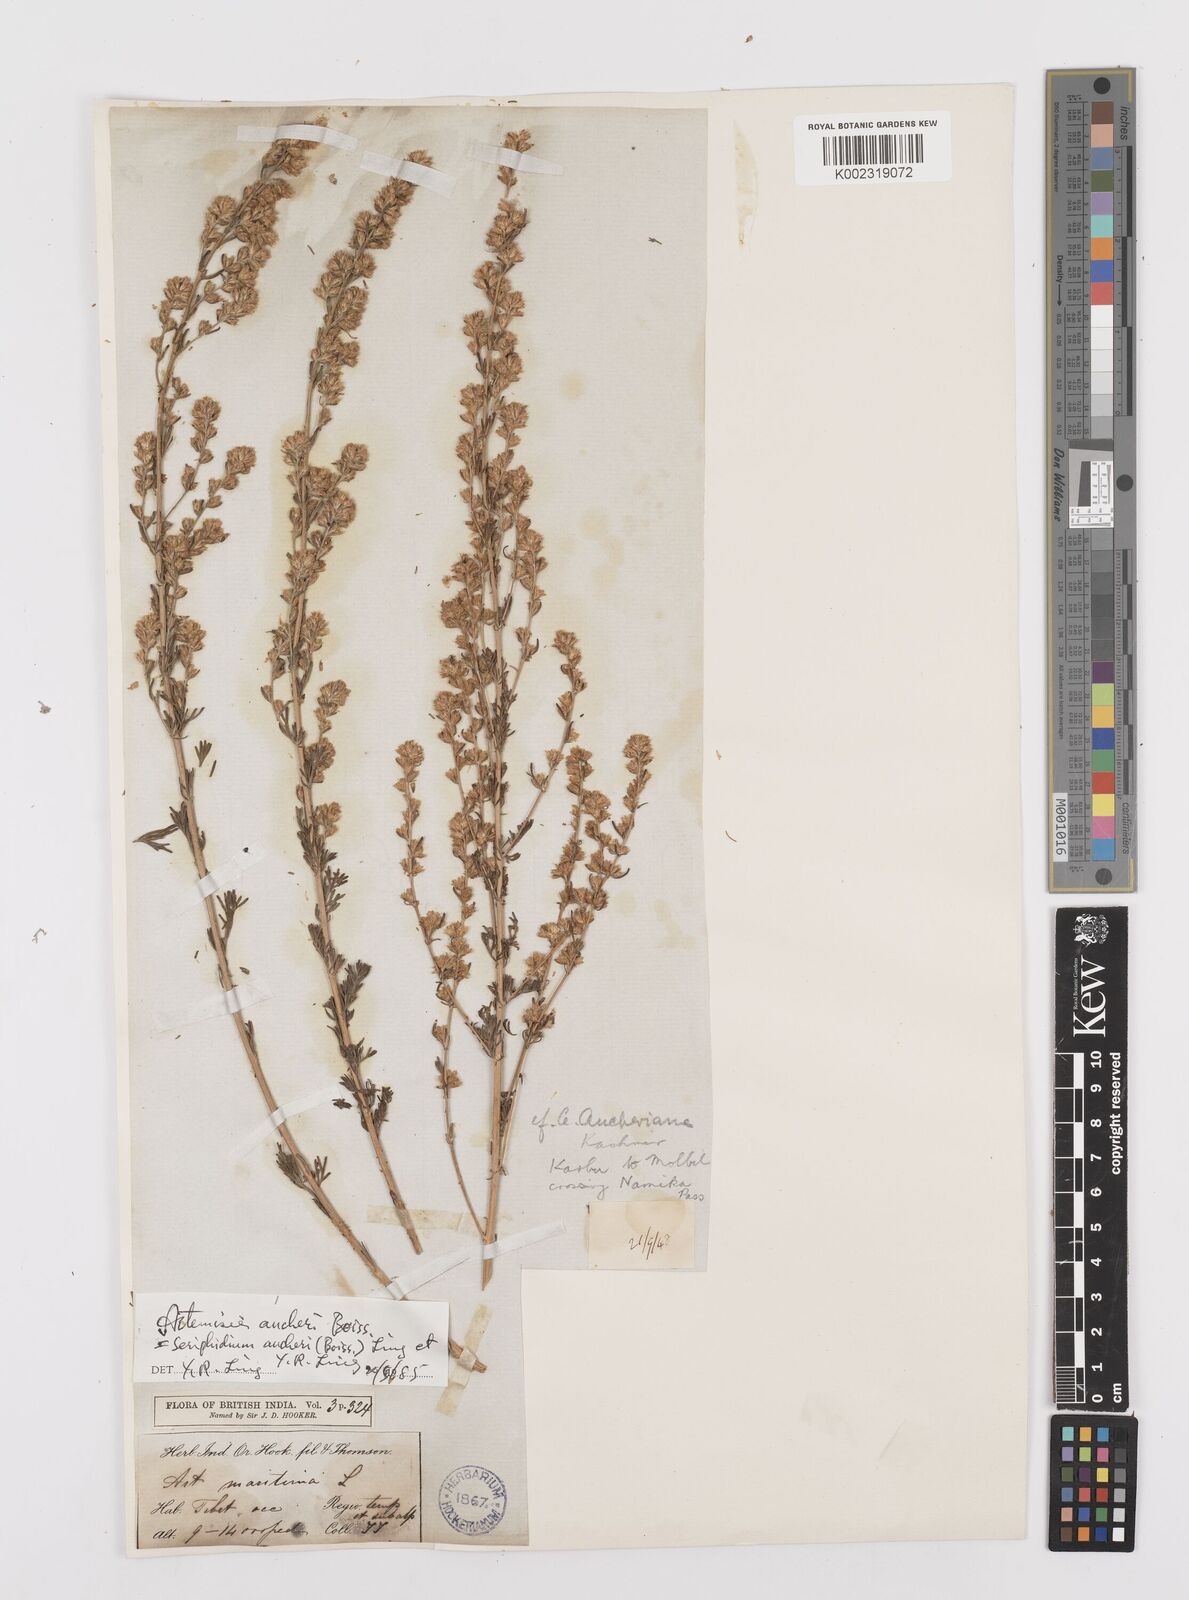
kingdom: Plantae
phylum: Tracheophyta
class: Magnoliopsida
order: Asterales
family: Asteraceae
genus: Artemisia
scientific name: Artemisia aucheri
